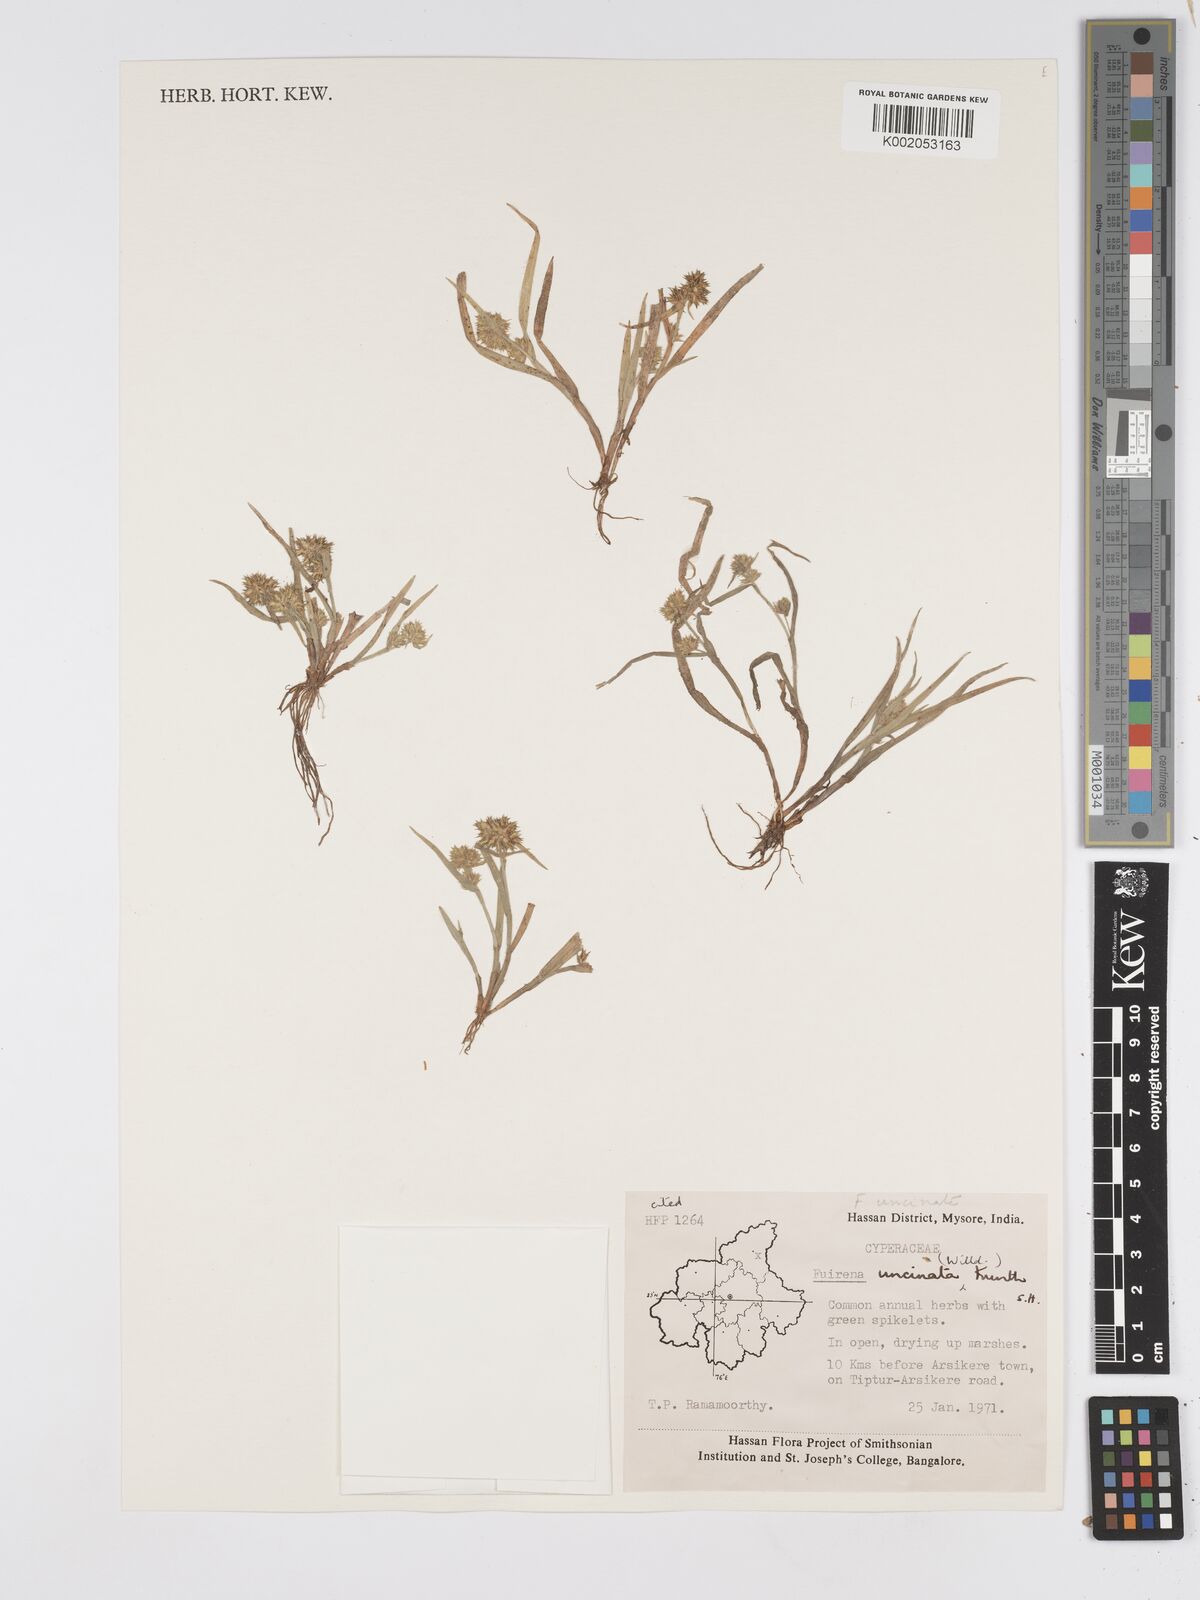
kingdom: Plantae
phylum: Tracheophyta
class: Liliopsida
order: Poales
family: Cyperaceae
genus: Fuirena
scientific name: Fuirena uncinata
